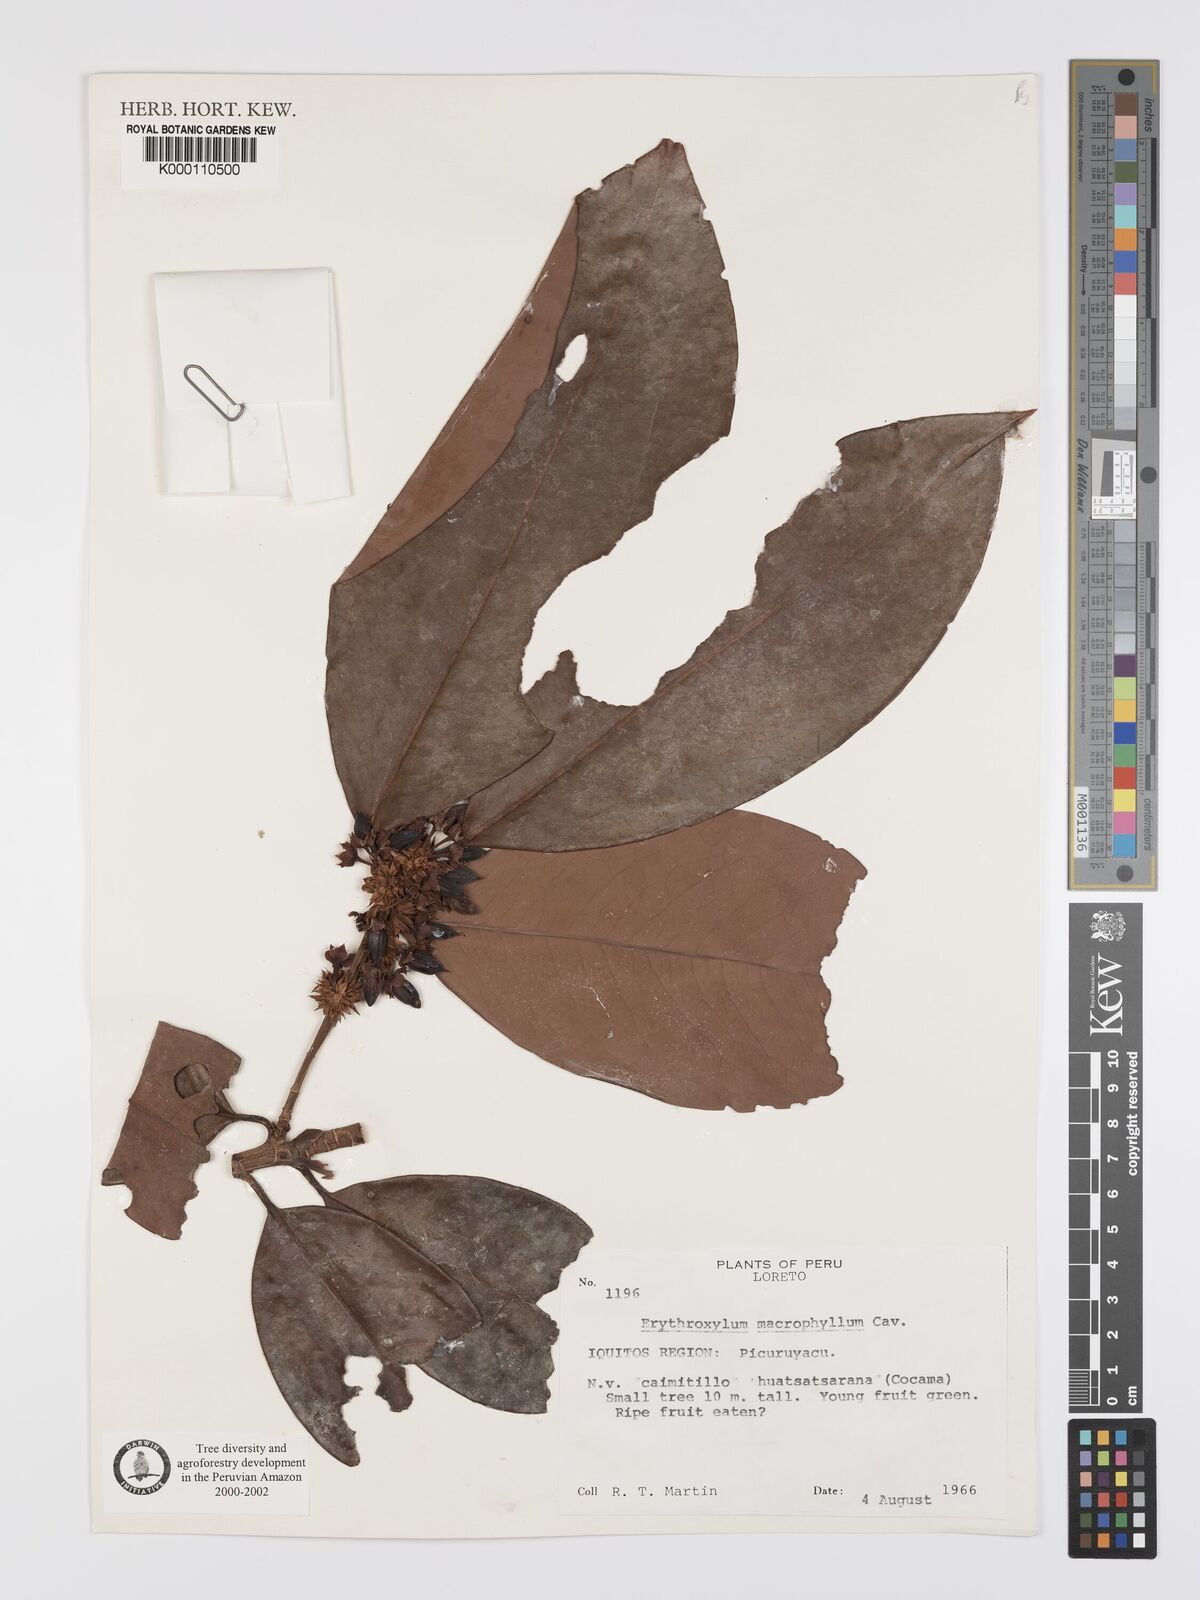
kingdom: Plantae
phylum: Tracheophyta
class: Magnoliopsida
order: Malpighiales
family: Erythroxylaceae
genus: Erythroxylum
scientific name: Erythroxylum
